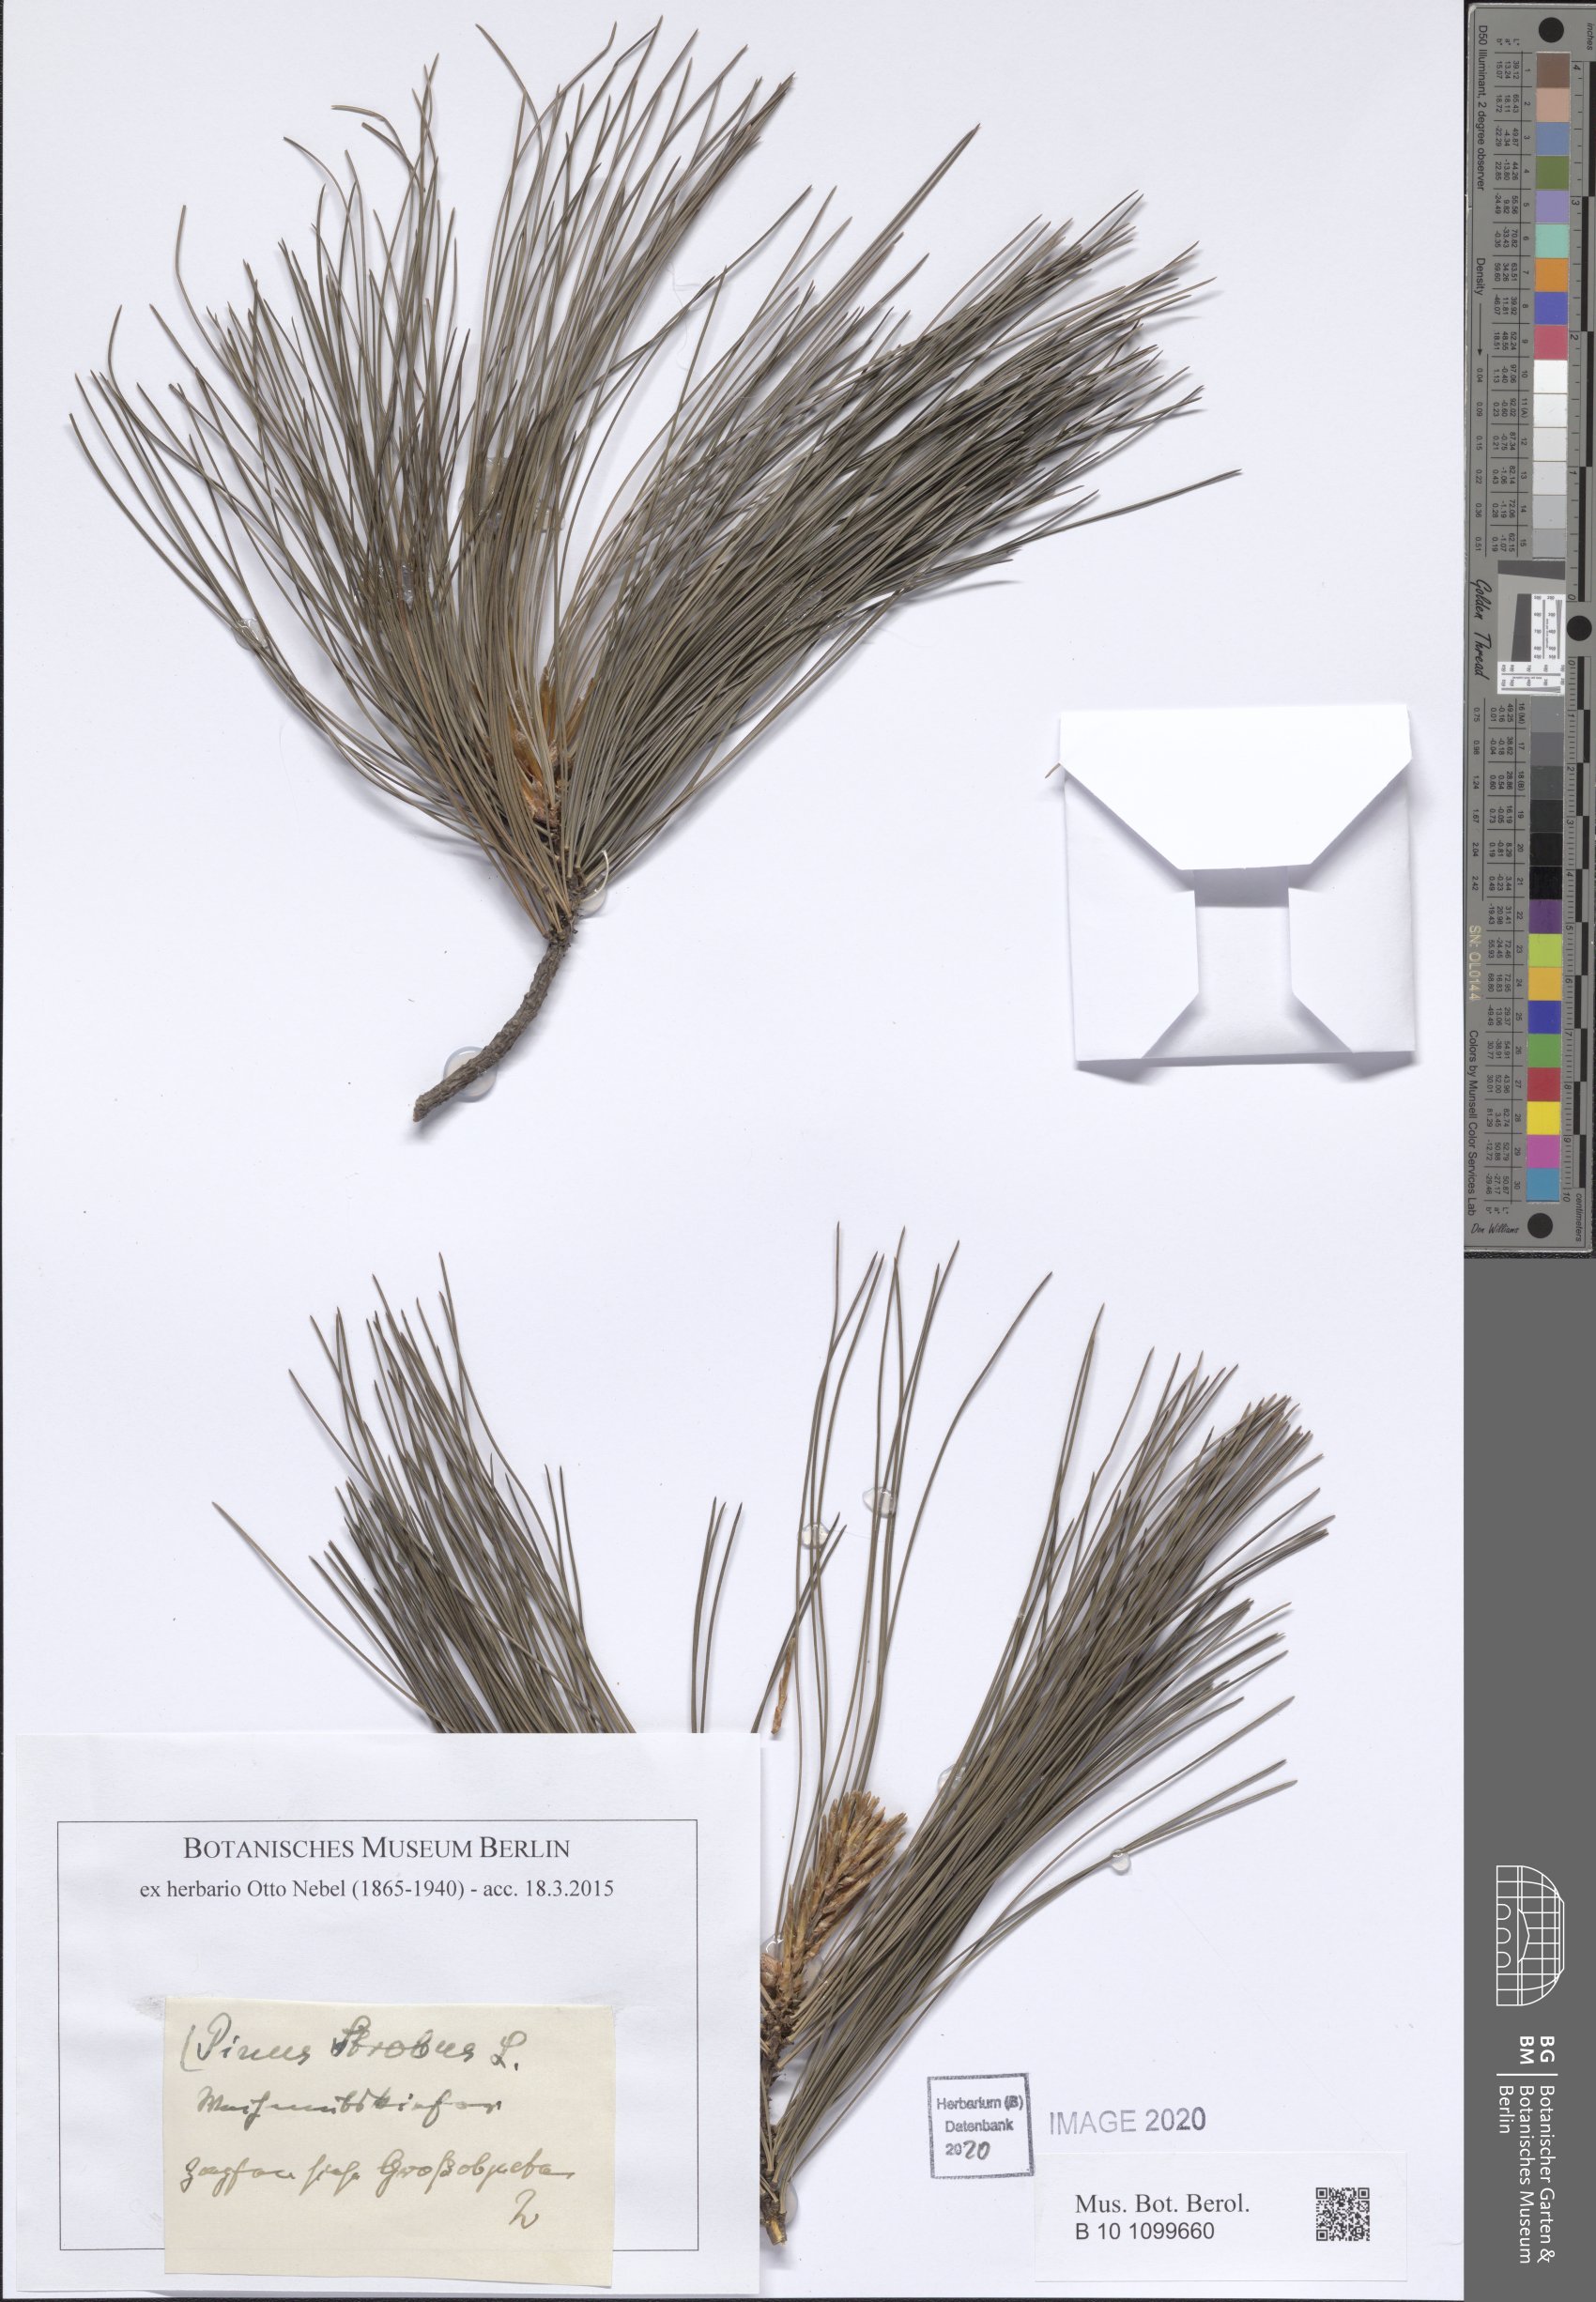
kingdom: Plantae
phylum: Tracheophyta
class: Pinopsida
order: Pinales
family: Pinaceae
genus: Pinus
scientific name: Pinus strobus
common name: Weymouth pine
